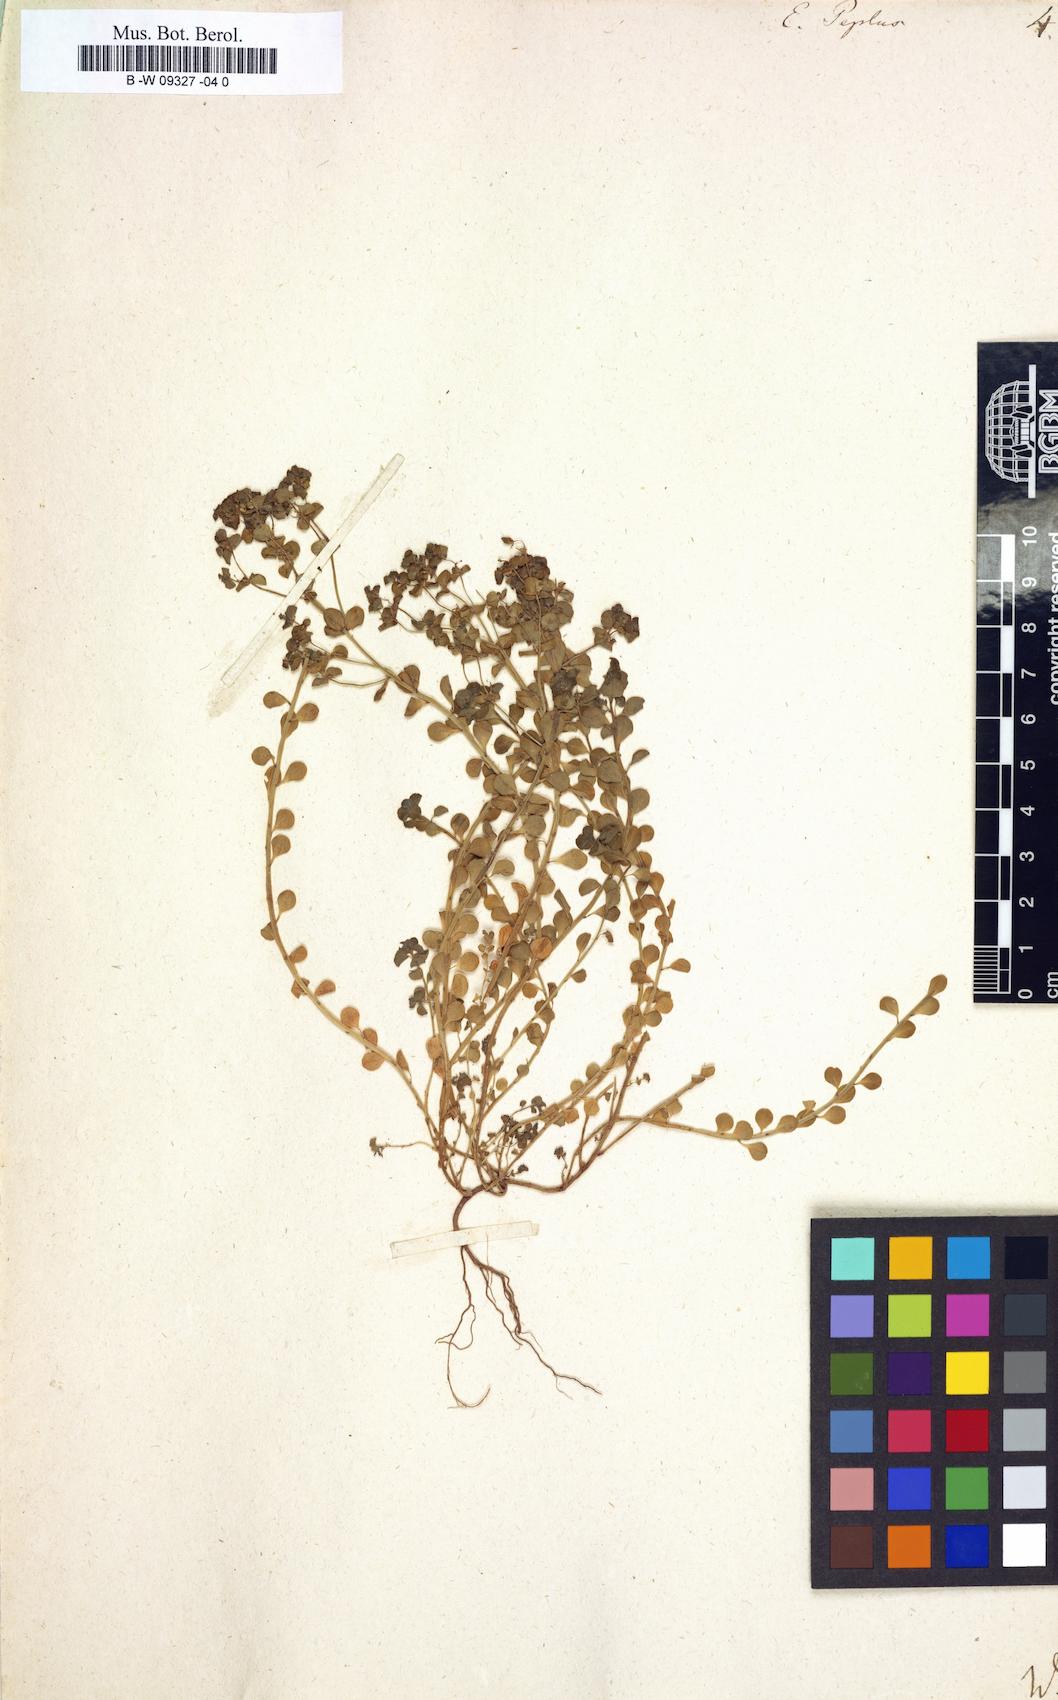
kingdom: Plantae
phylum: Tracheophyta
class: Magnoliopsida
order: Malpighiales
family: Euphorbiaceae
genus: Euphorbia
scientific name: Euphorbia peplus
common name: Petty spurge
